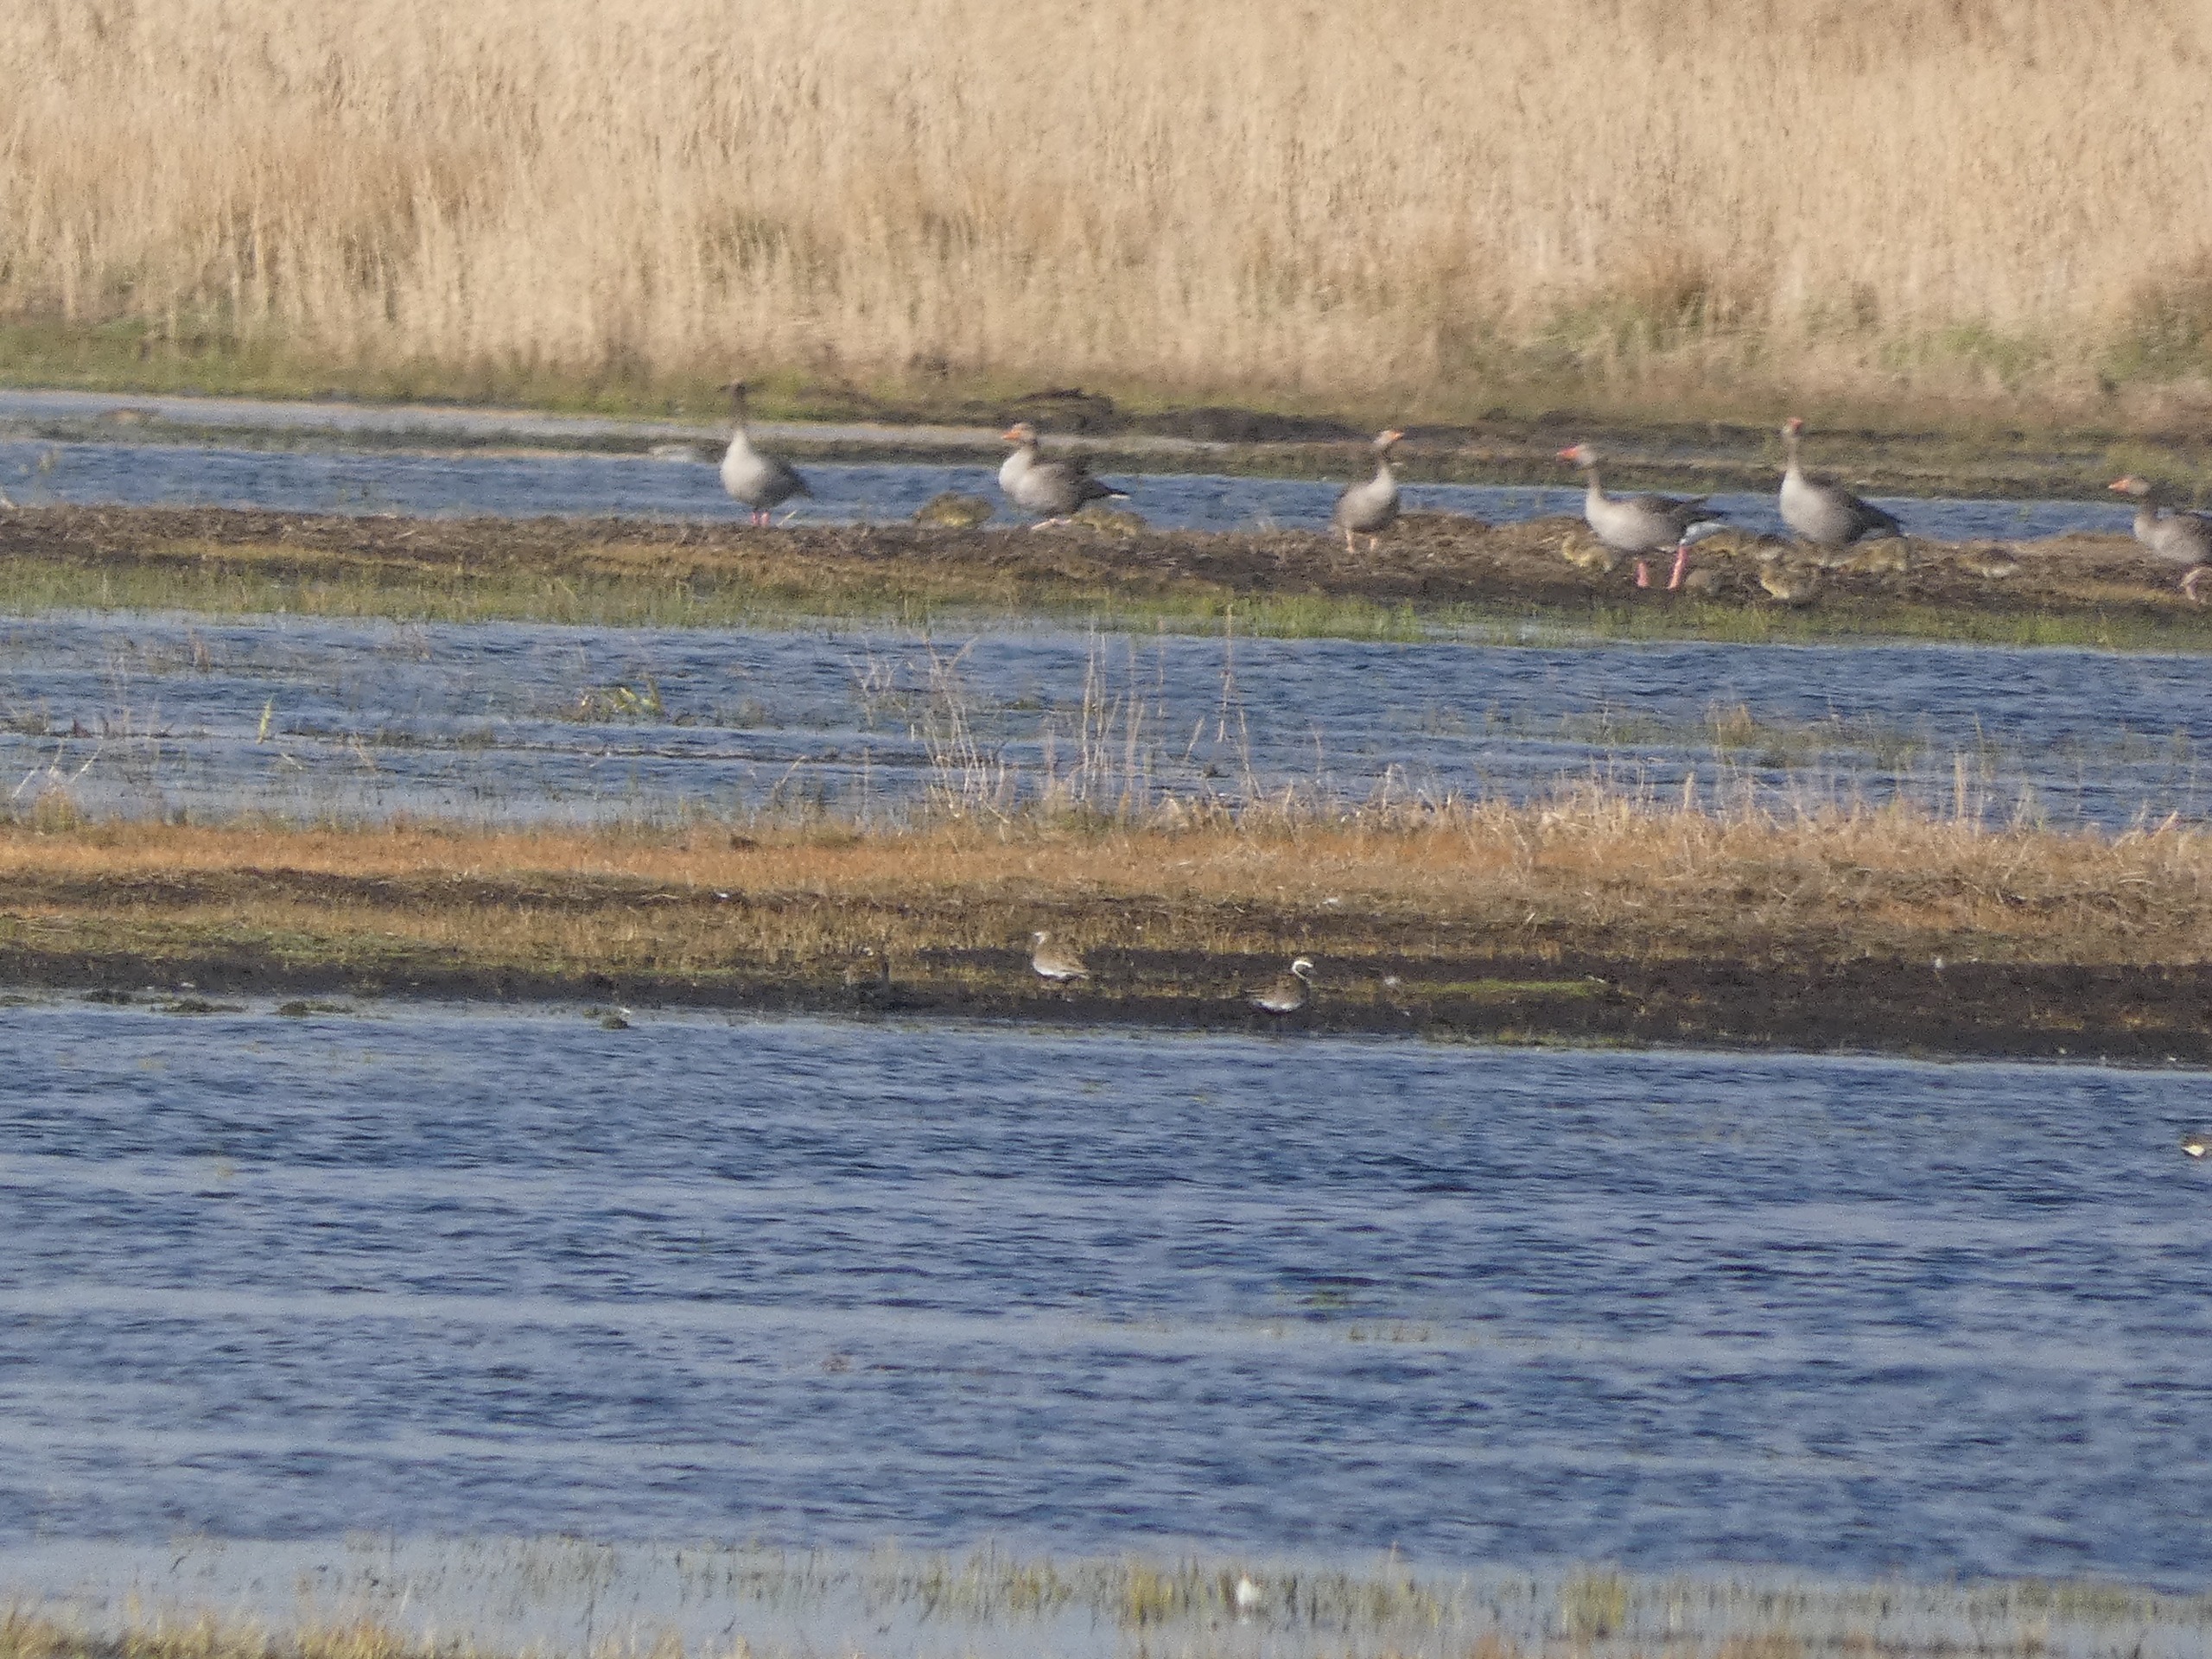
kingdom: Animalia
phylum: Chordata
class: Aves
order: Charadriiformes
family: Charadriidae
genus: Pluvialis
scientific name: Pluvialis apricaria
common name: Hjejle
